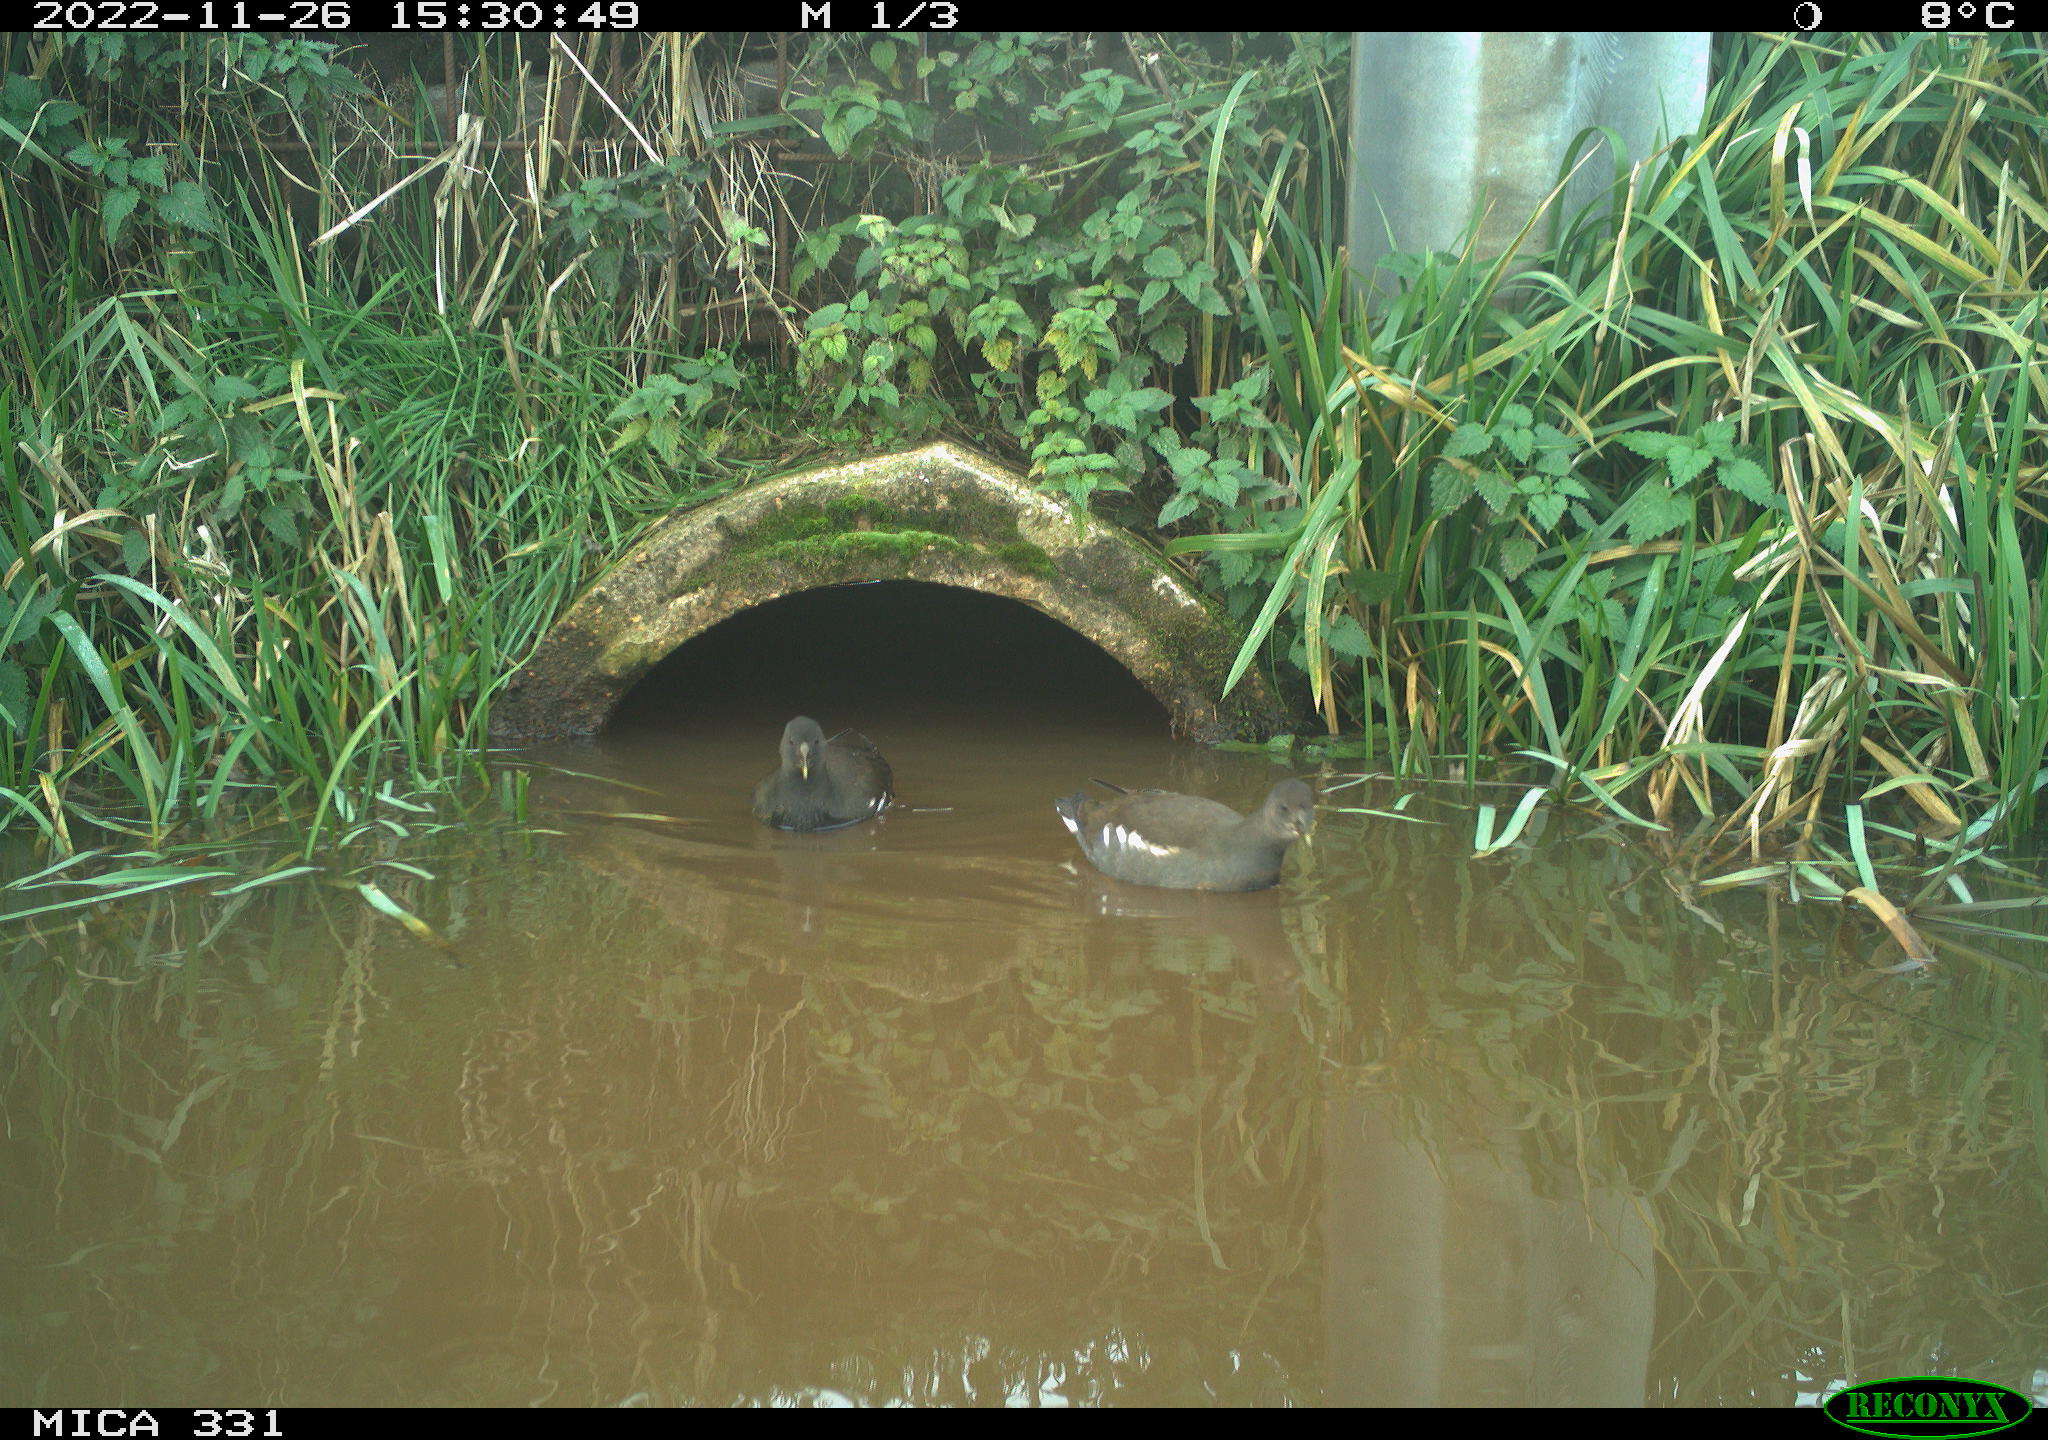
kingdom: Animalia
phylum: Chordata
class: Aves
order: Gruiformes
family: Rallidae
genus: Gallinula
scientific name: Gallinula chloropus
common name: Common moorhen
